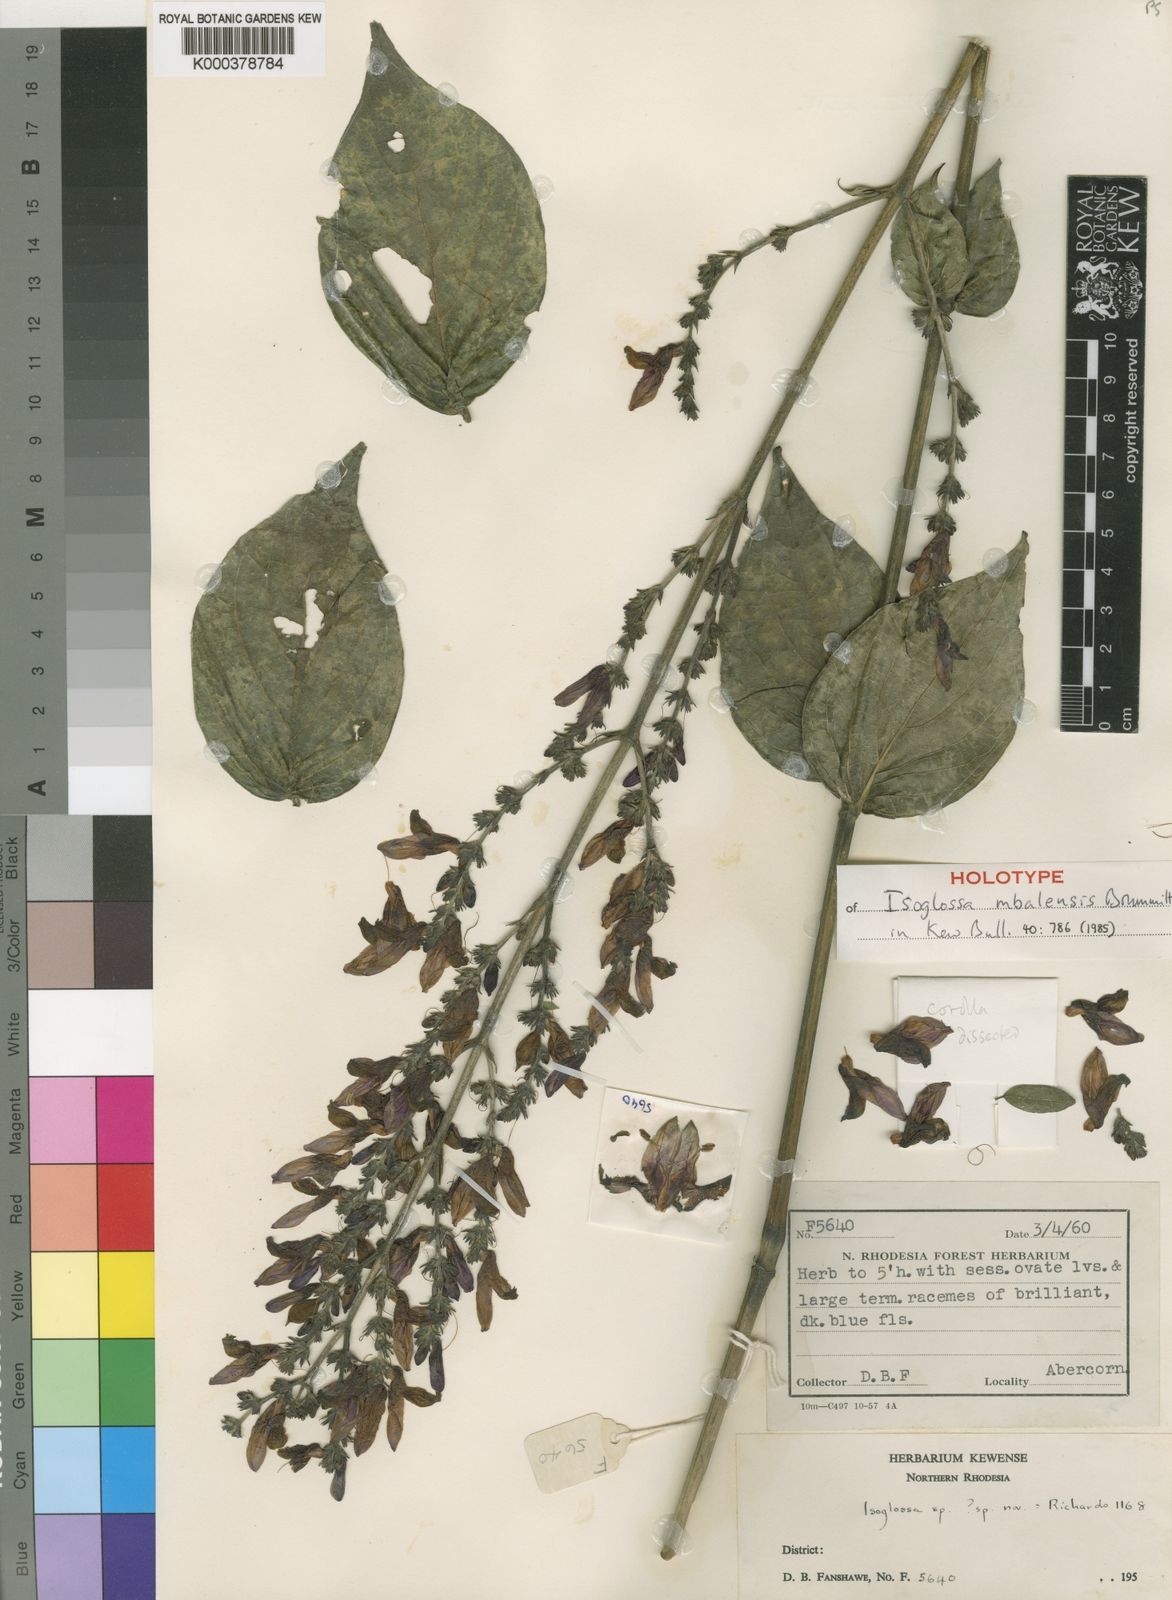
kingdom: Plantae
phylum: Tracheophyta
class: Magnoliopsida
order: Lamiales
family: Acanthaceae
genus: Isoglossa
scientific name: Isoglossa mbalensis
